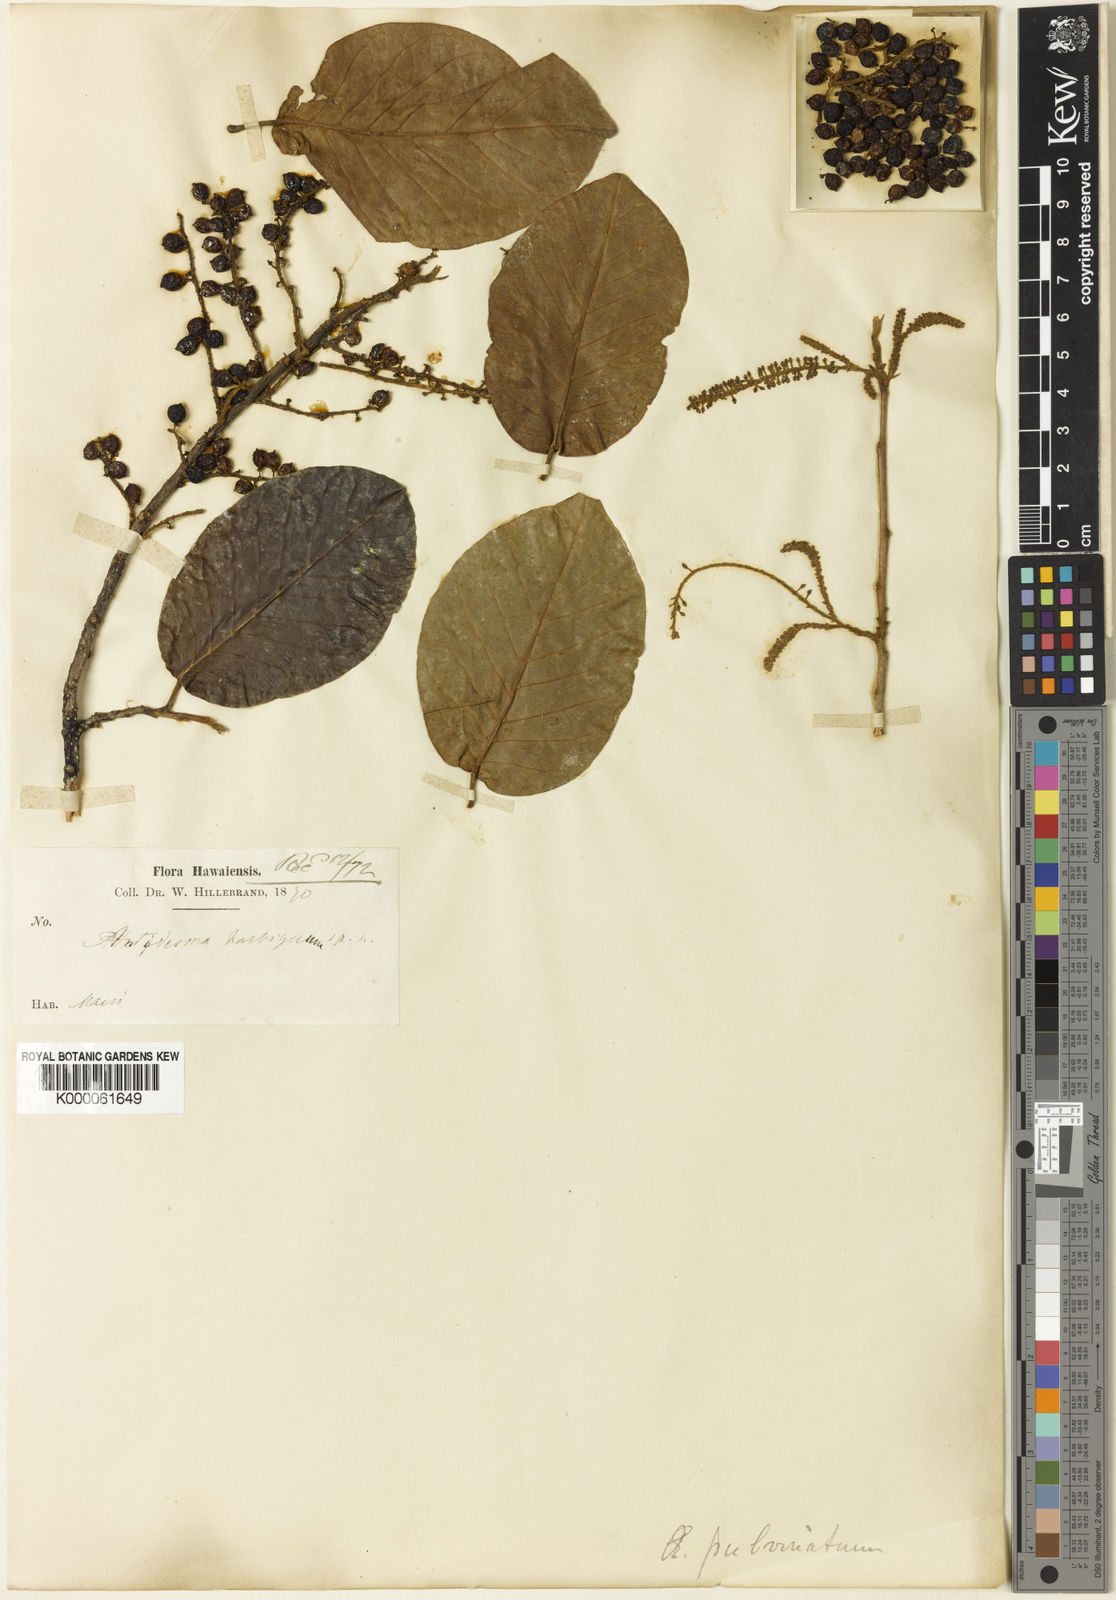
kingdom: Plantae
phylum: Tracheophyta
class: Magnoliopsida
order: Malpighiales
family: Phyllanthaceae
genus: Antidesma
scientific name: Antidesma pulvinatum
